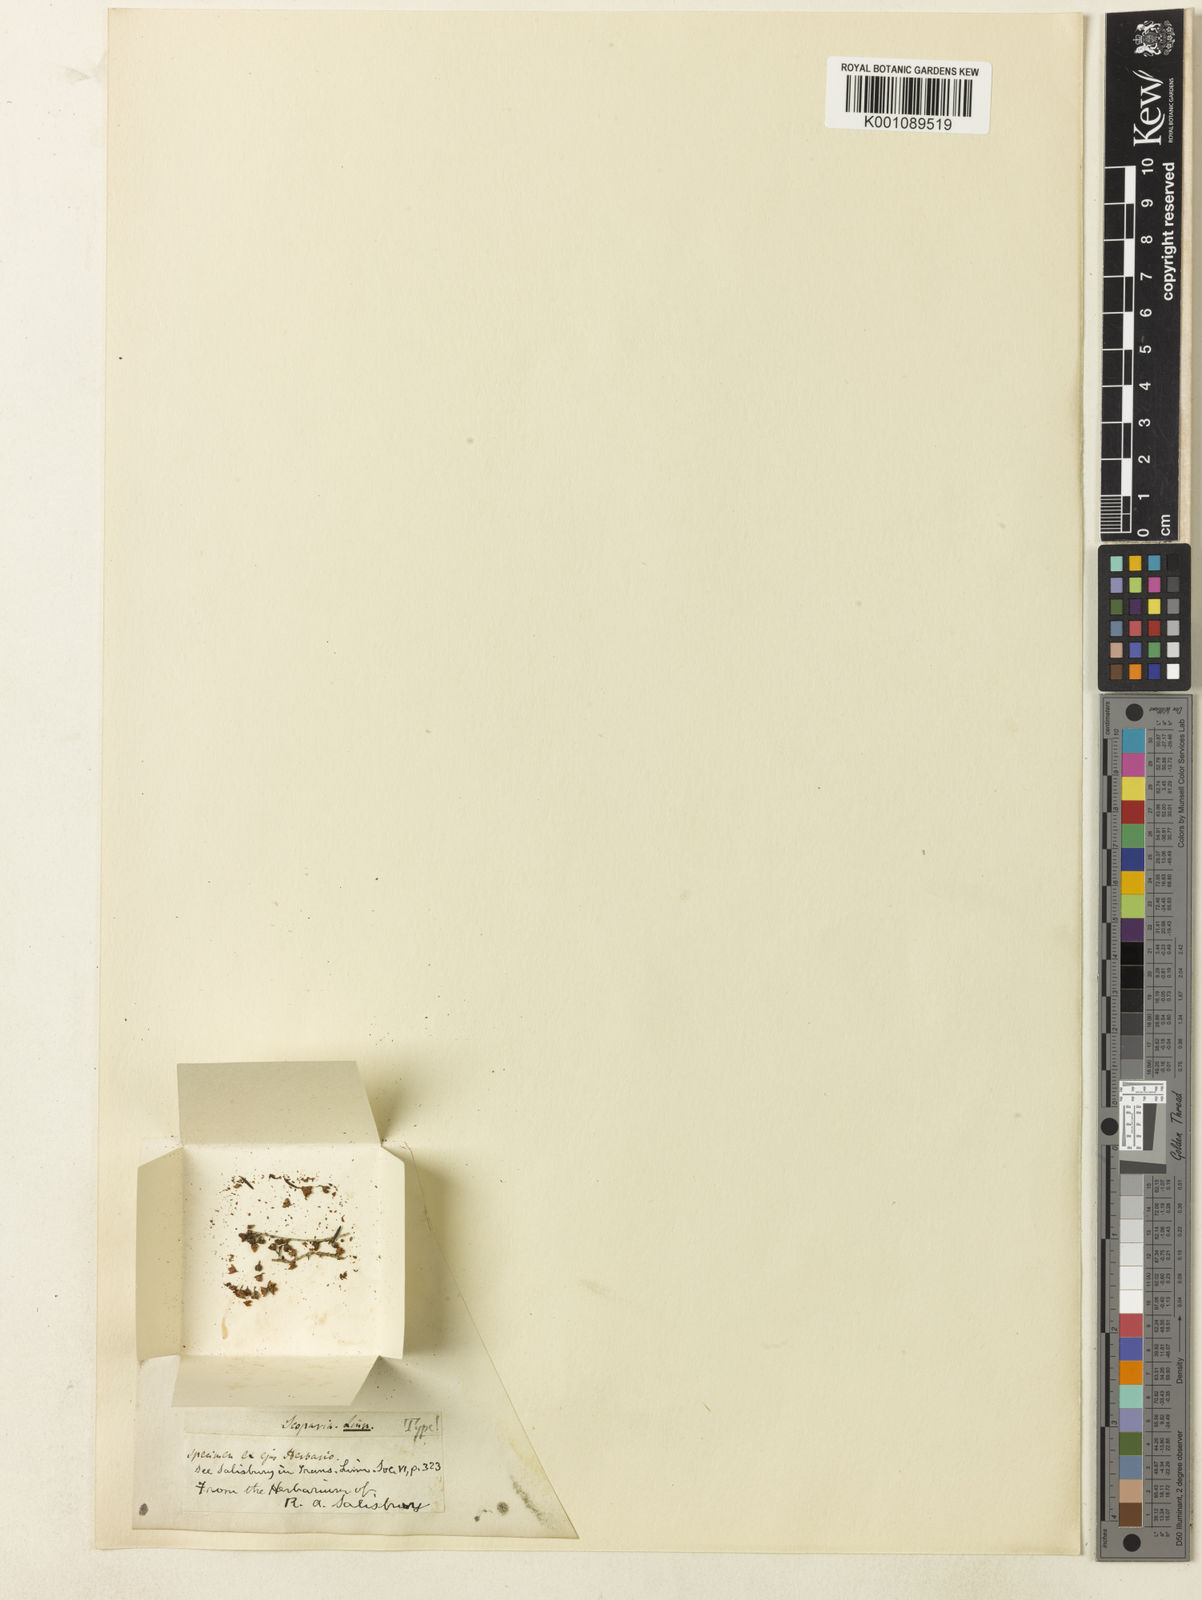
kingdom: Plantae
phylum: Tracheophyta
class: Magnoliopsida
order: Ericales
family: Ericaceae
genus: Erica
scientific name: Erica scoparia
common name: Green heather
